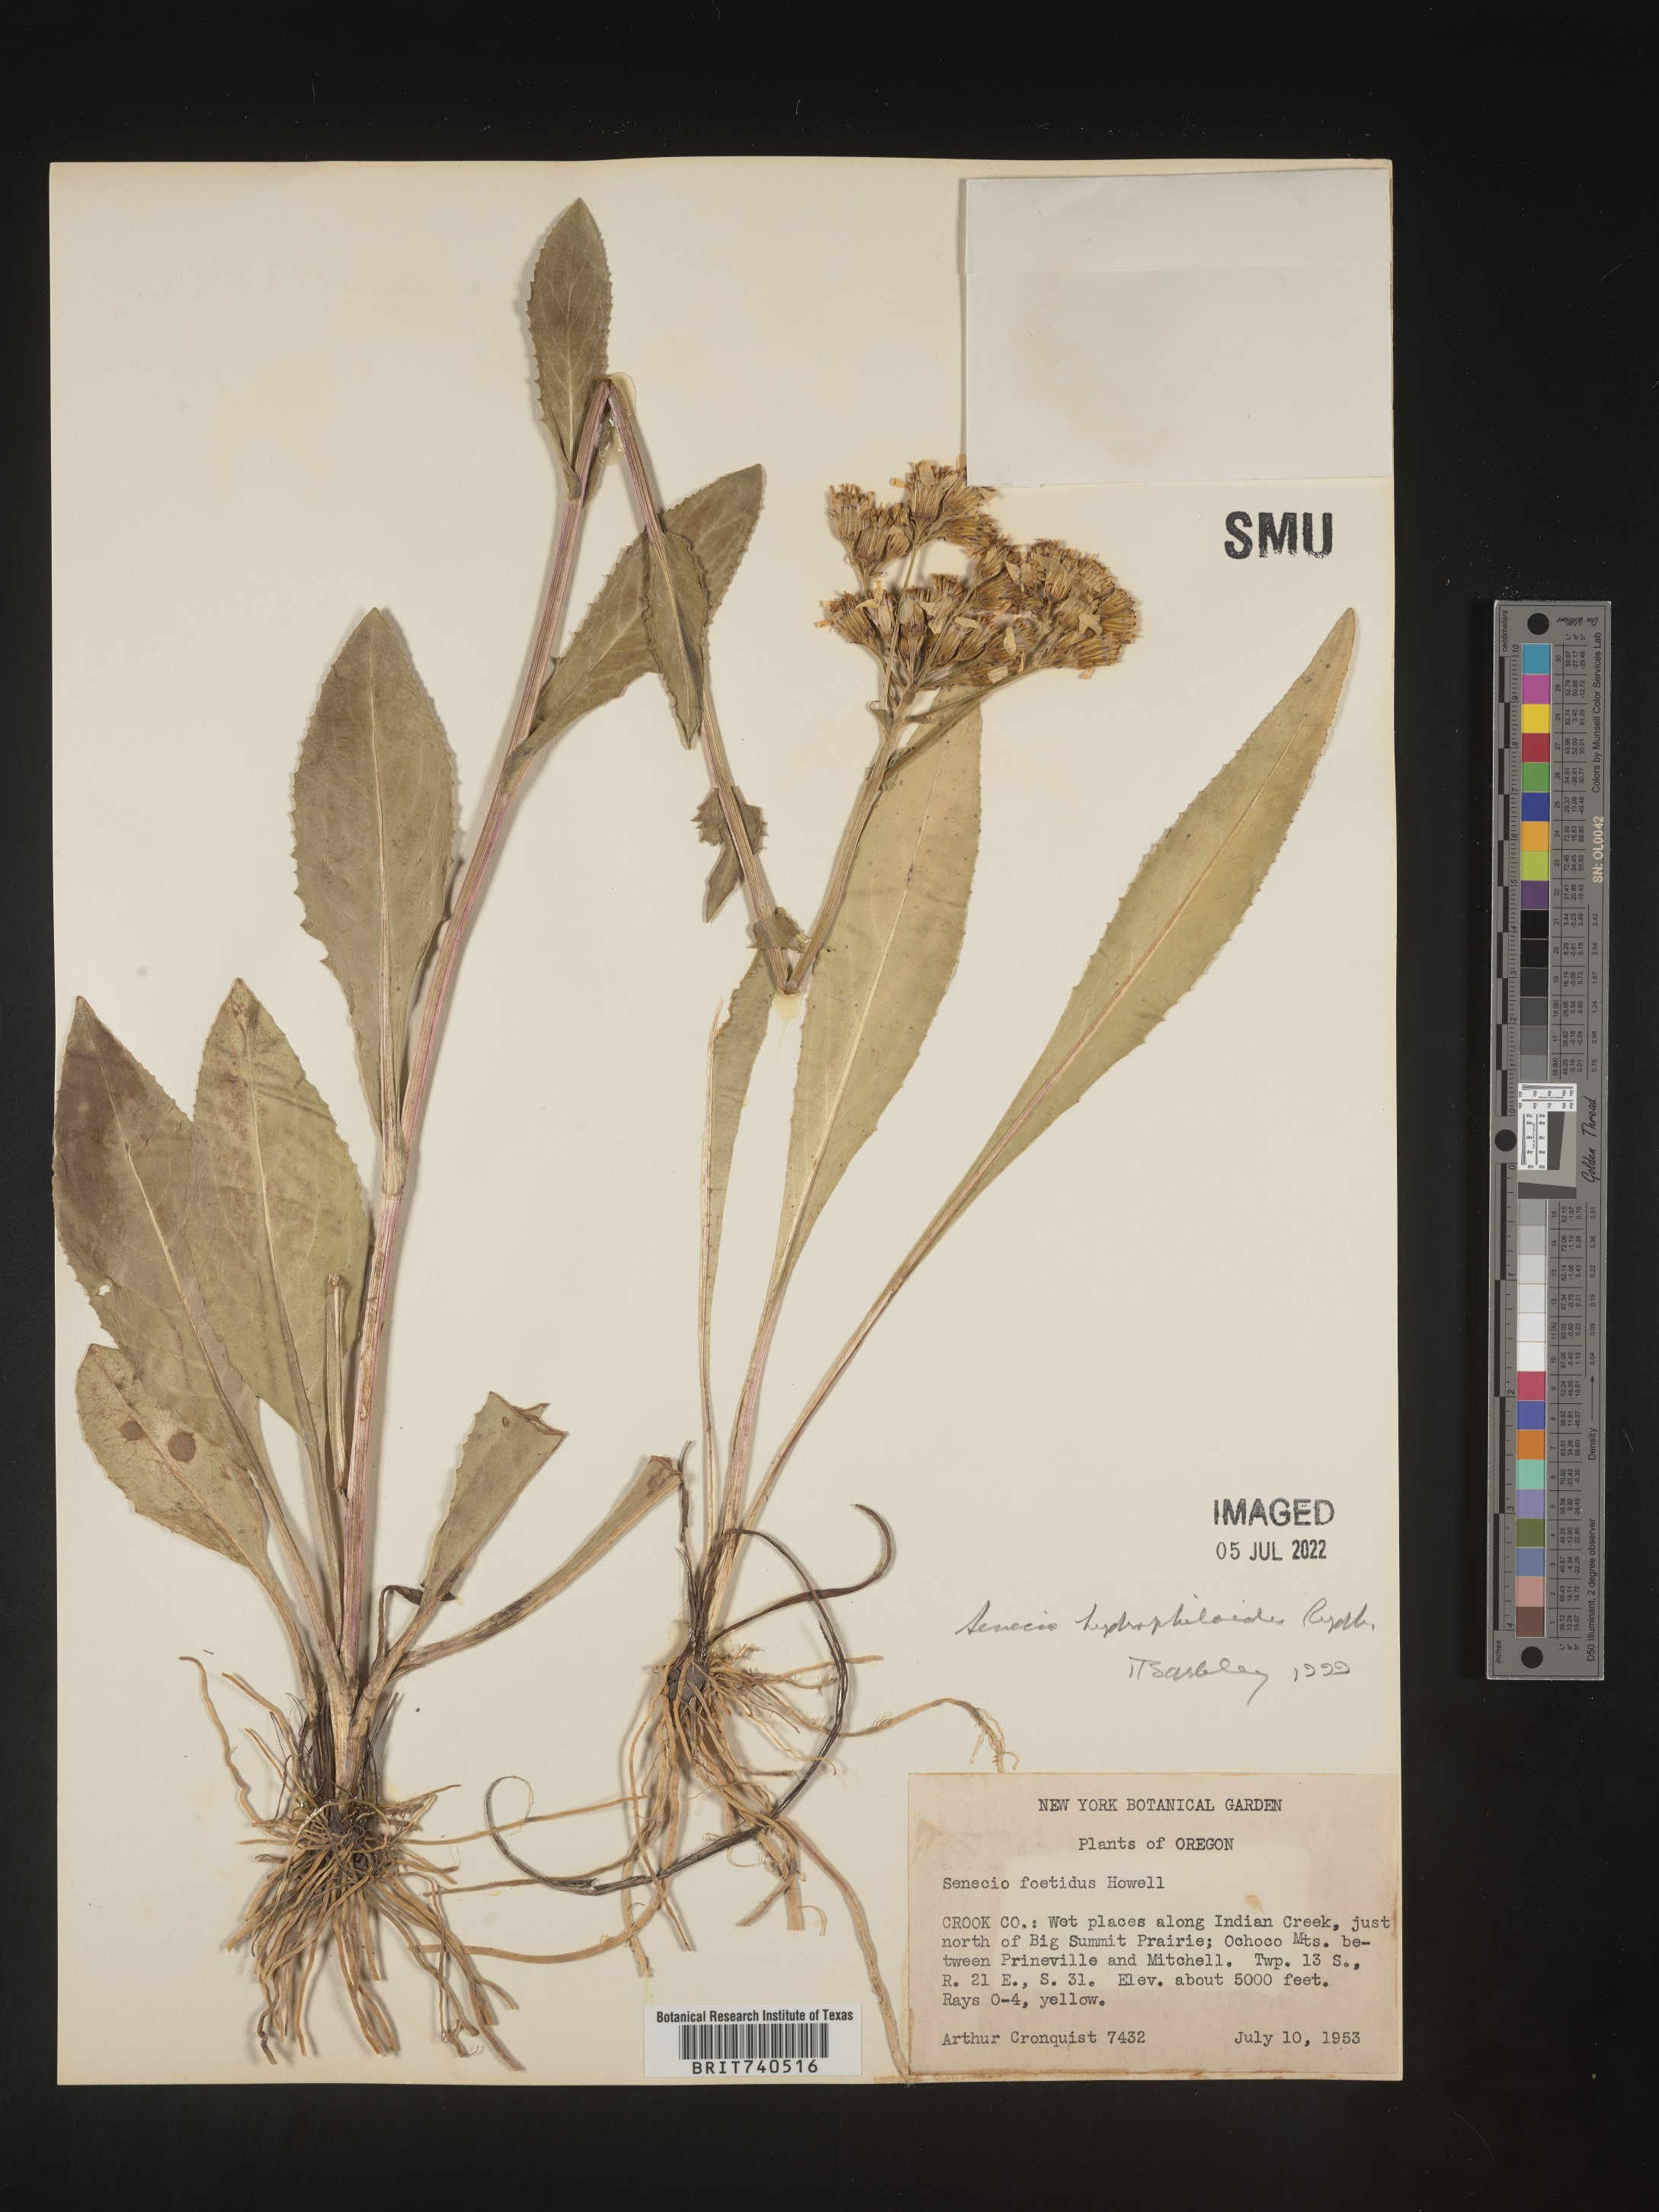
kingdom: Plantae
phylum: Tracheophyta
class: Magnoliopsida
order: Asterales
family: Asteraceae
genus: Senecio
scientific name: Senecio hydrophiloides
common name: Stout meadow groundsel
